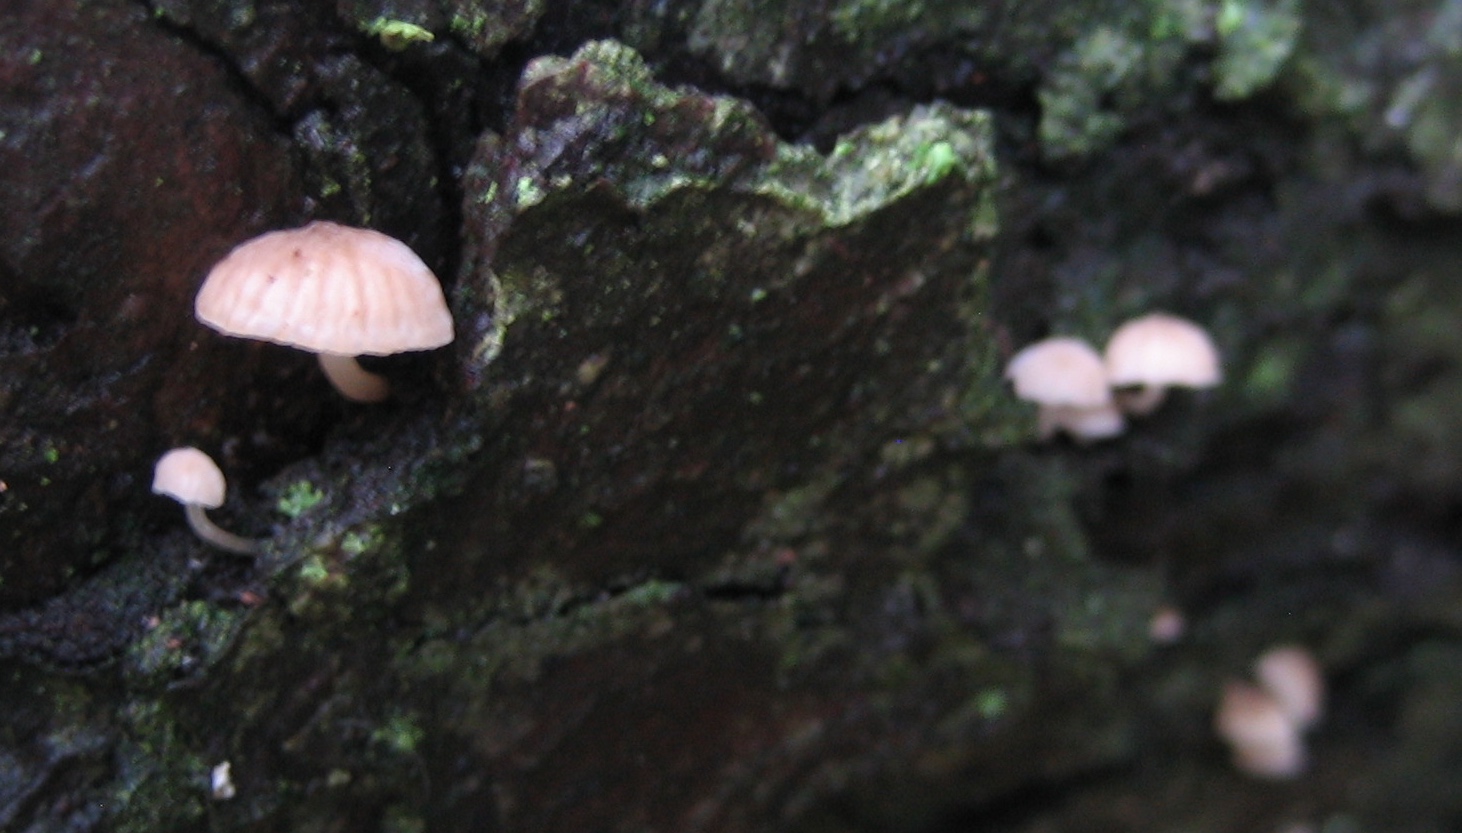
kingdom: Fungi
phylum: Basidiomycota
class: Agaricomycetes
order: Agaricales
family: Mycenaceae
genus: Mycena
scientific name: Mycena meliigena
